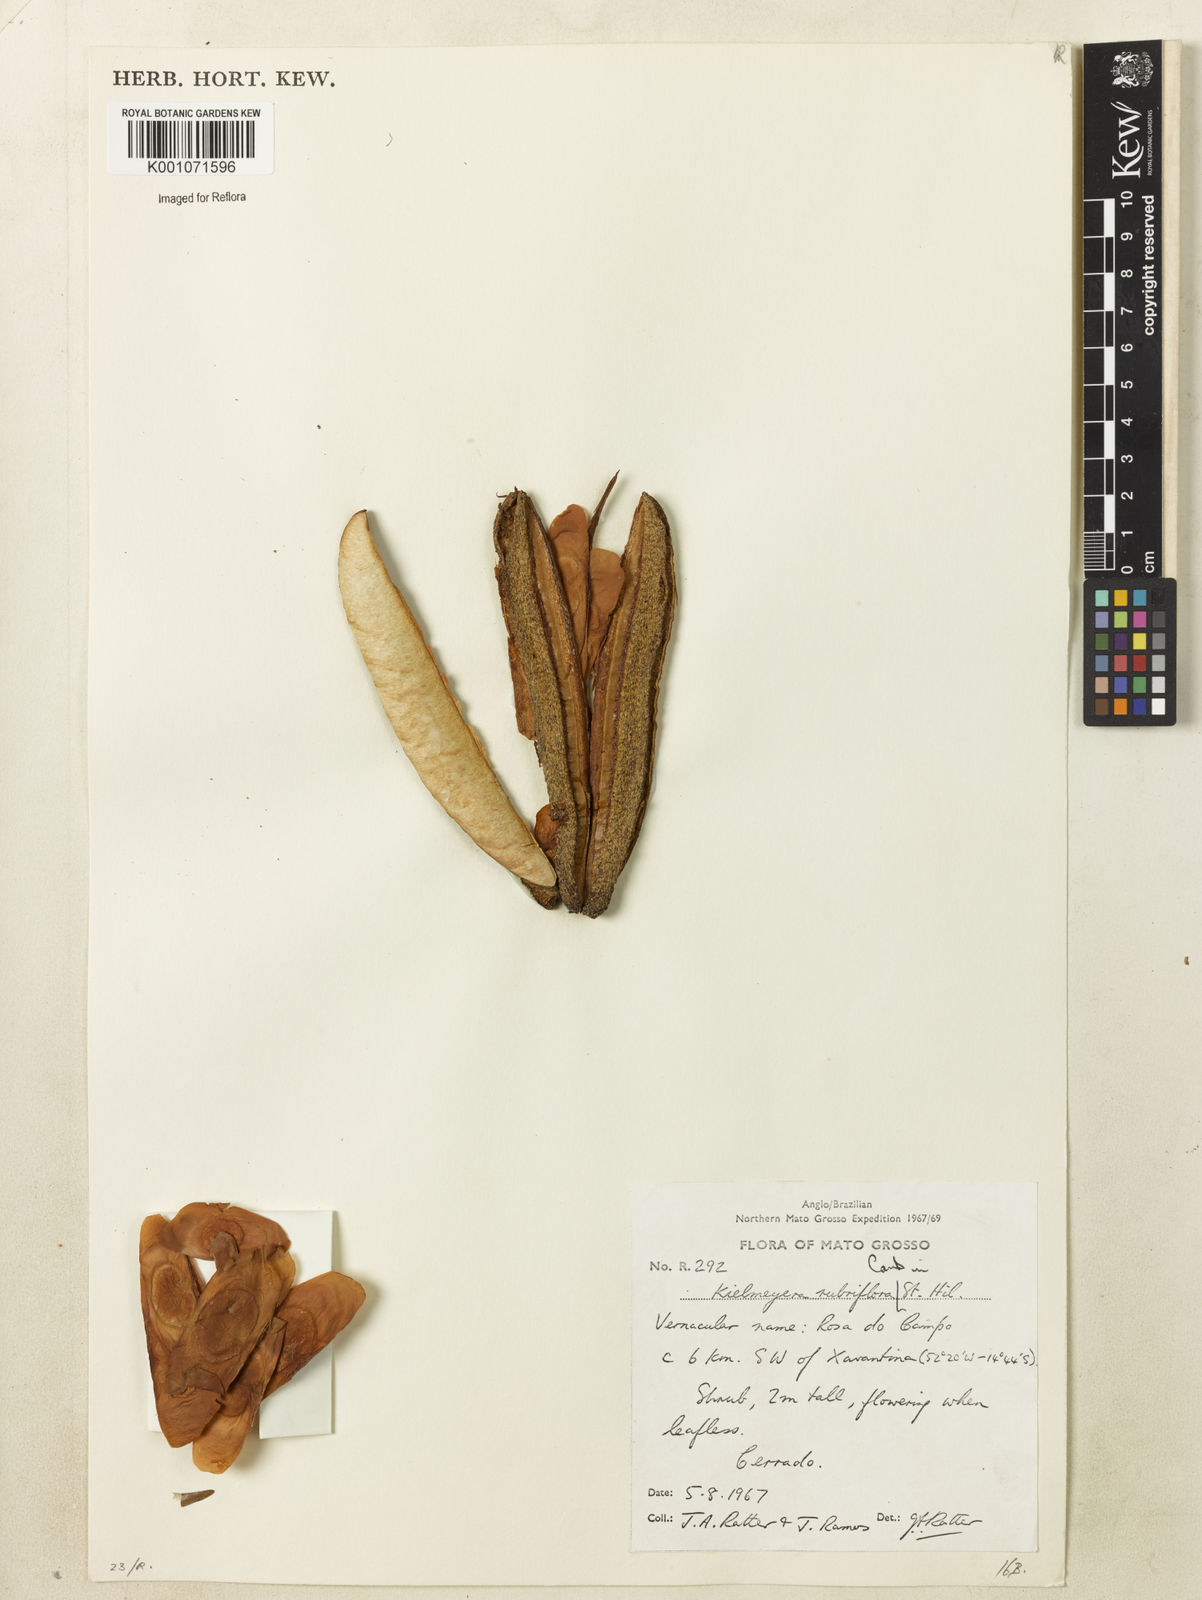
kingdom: Plantae
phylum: Tracheophyta
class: Magnoliopsida
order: Malpighiales
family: Calophyllaceae
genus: Kielmeyera
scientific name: Kielmeyera rubriflora
